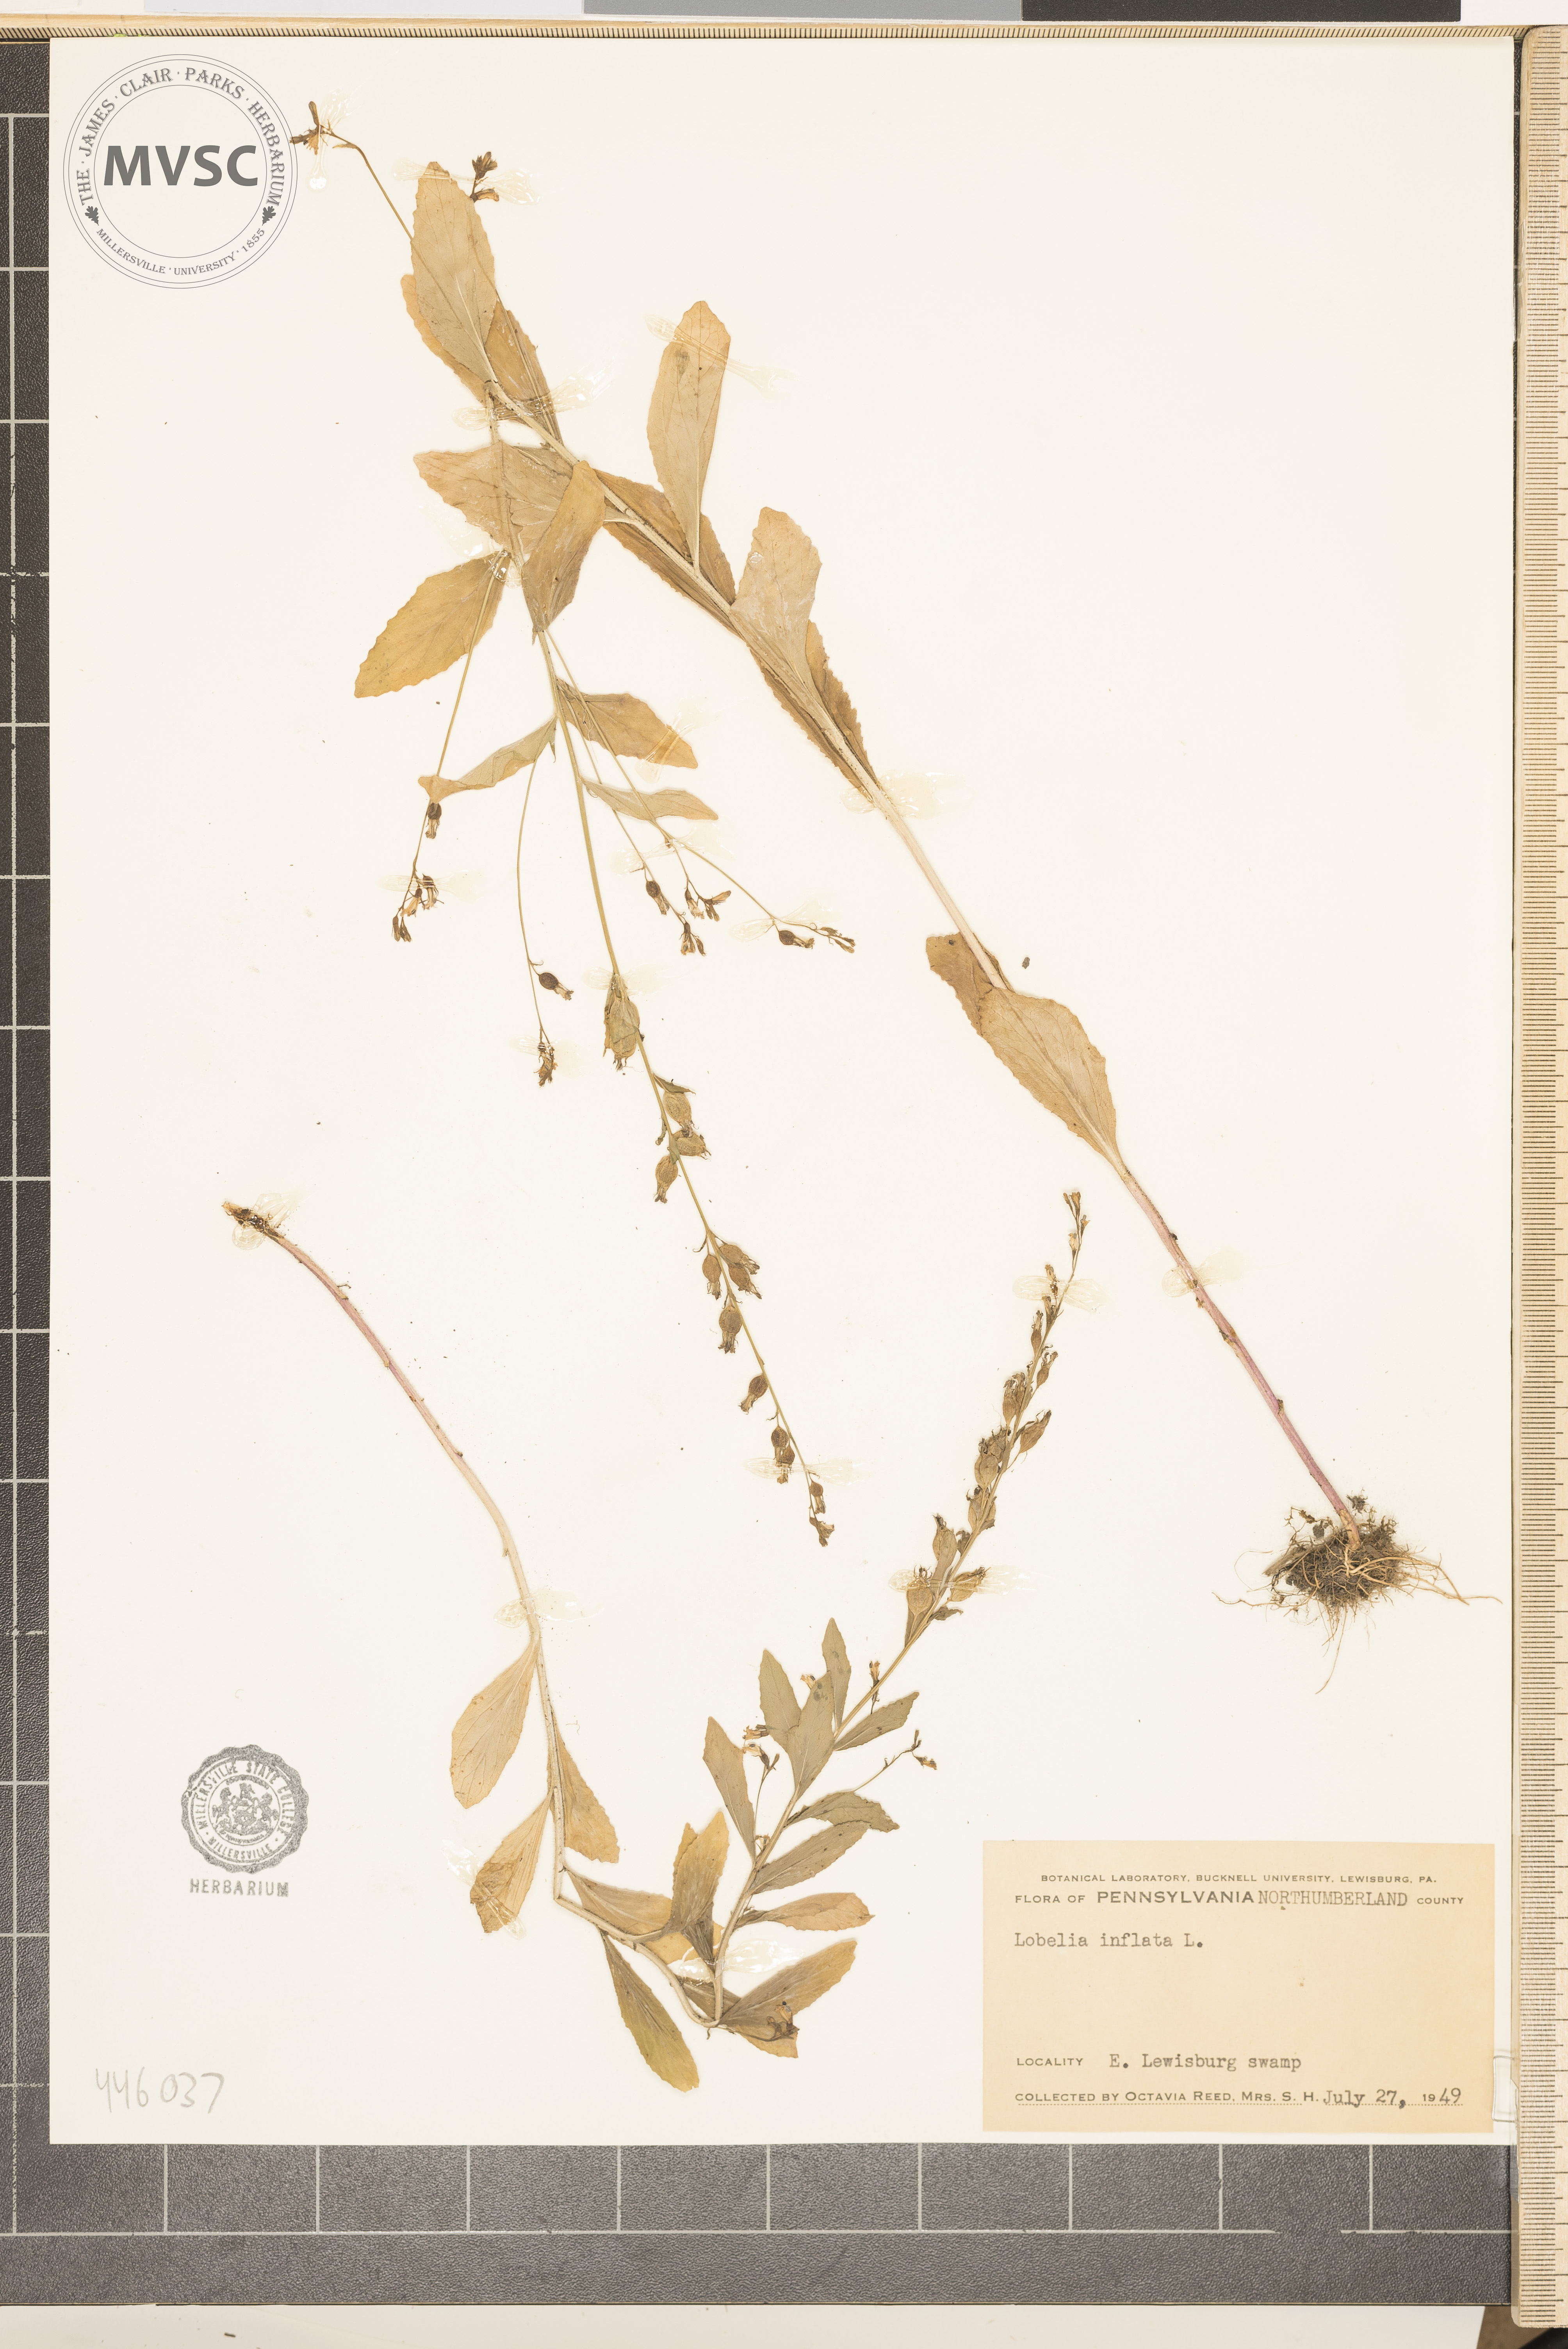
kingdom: Plantae
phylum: Tracheophyta
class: Magnoliopsida
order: Asterales
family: Campanulaceae
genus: Lobelia
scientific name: Lobelia inflata
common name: Indian tobacco
